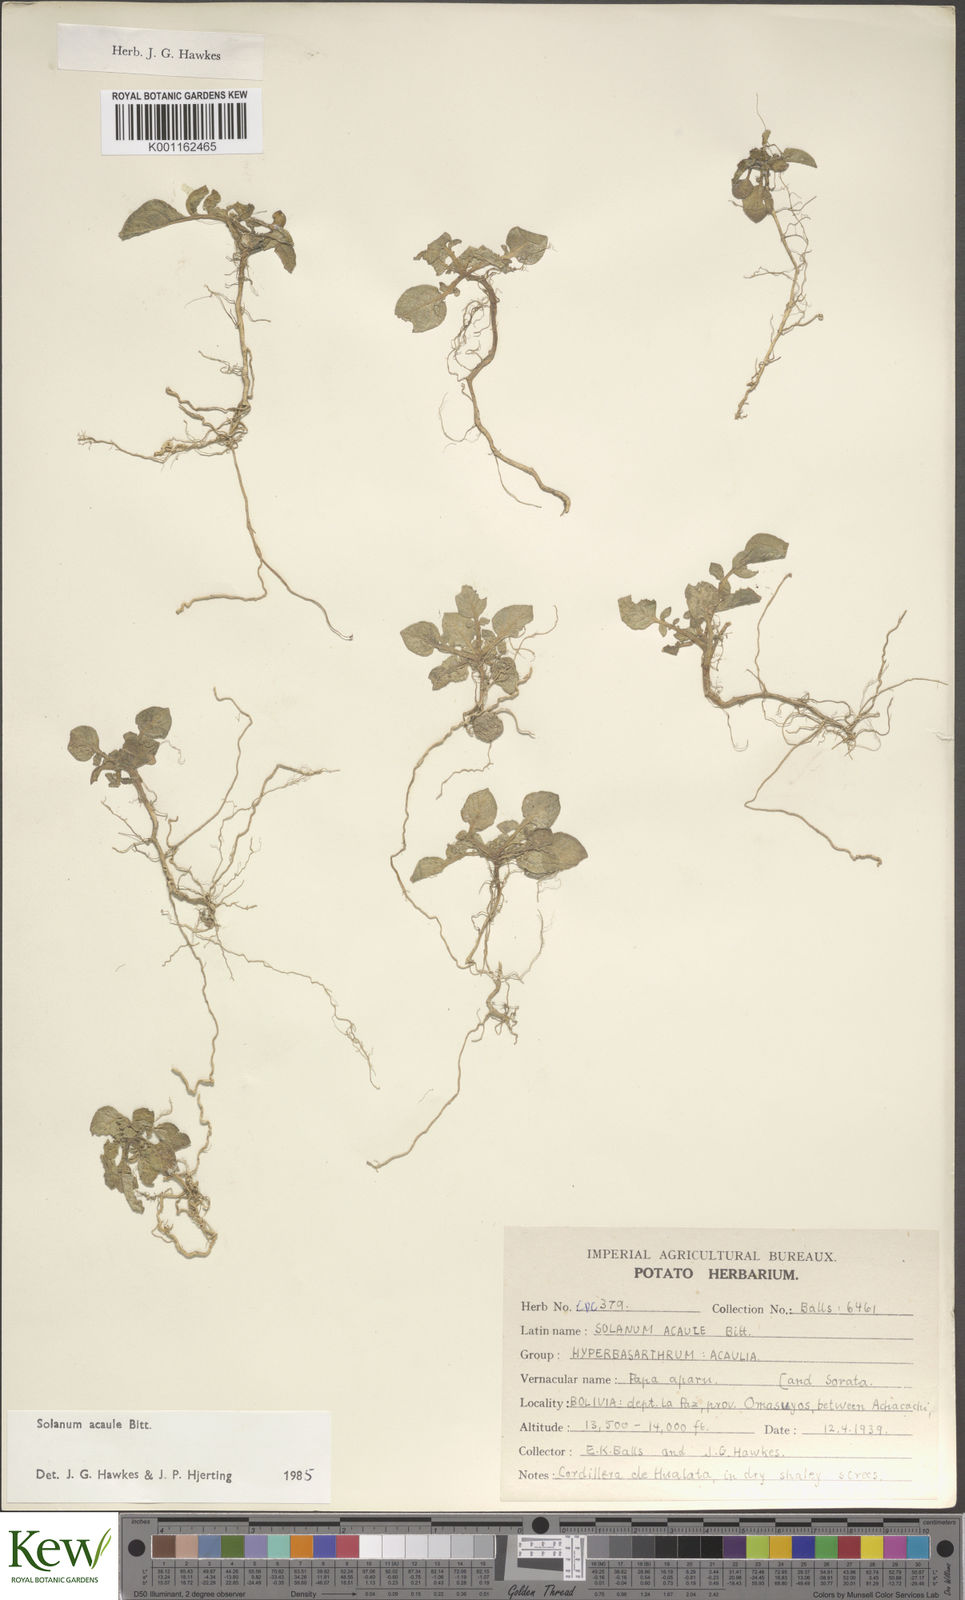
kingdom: Plantae
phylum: Tracheophyta
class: Magnoliopsida
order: Solanales
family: Solanaceae
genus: Solanum
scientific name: Solanum acaule
